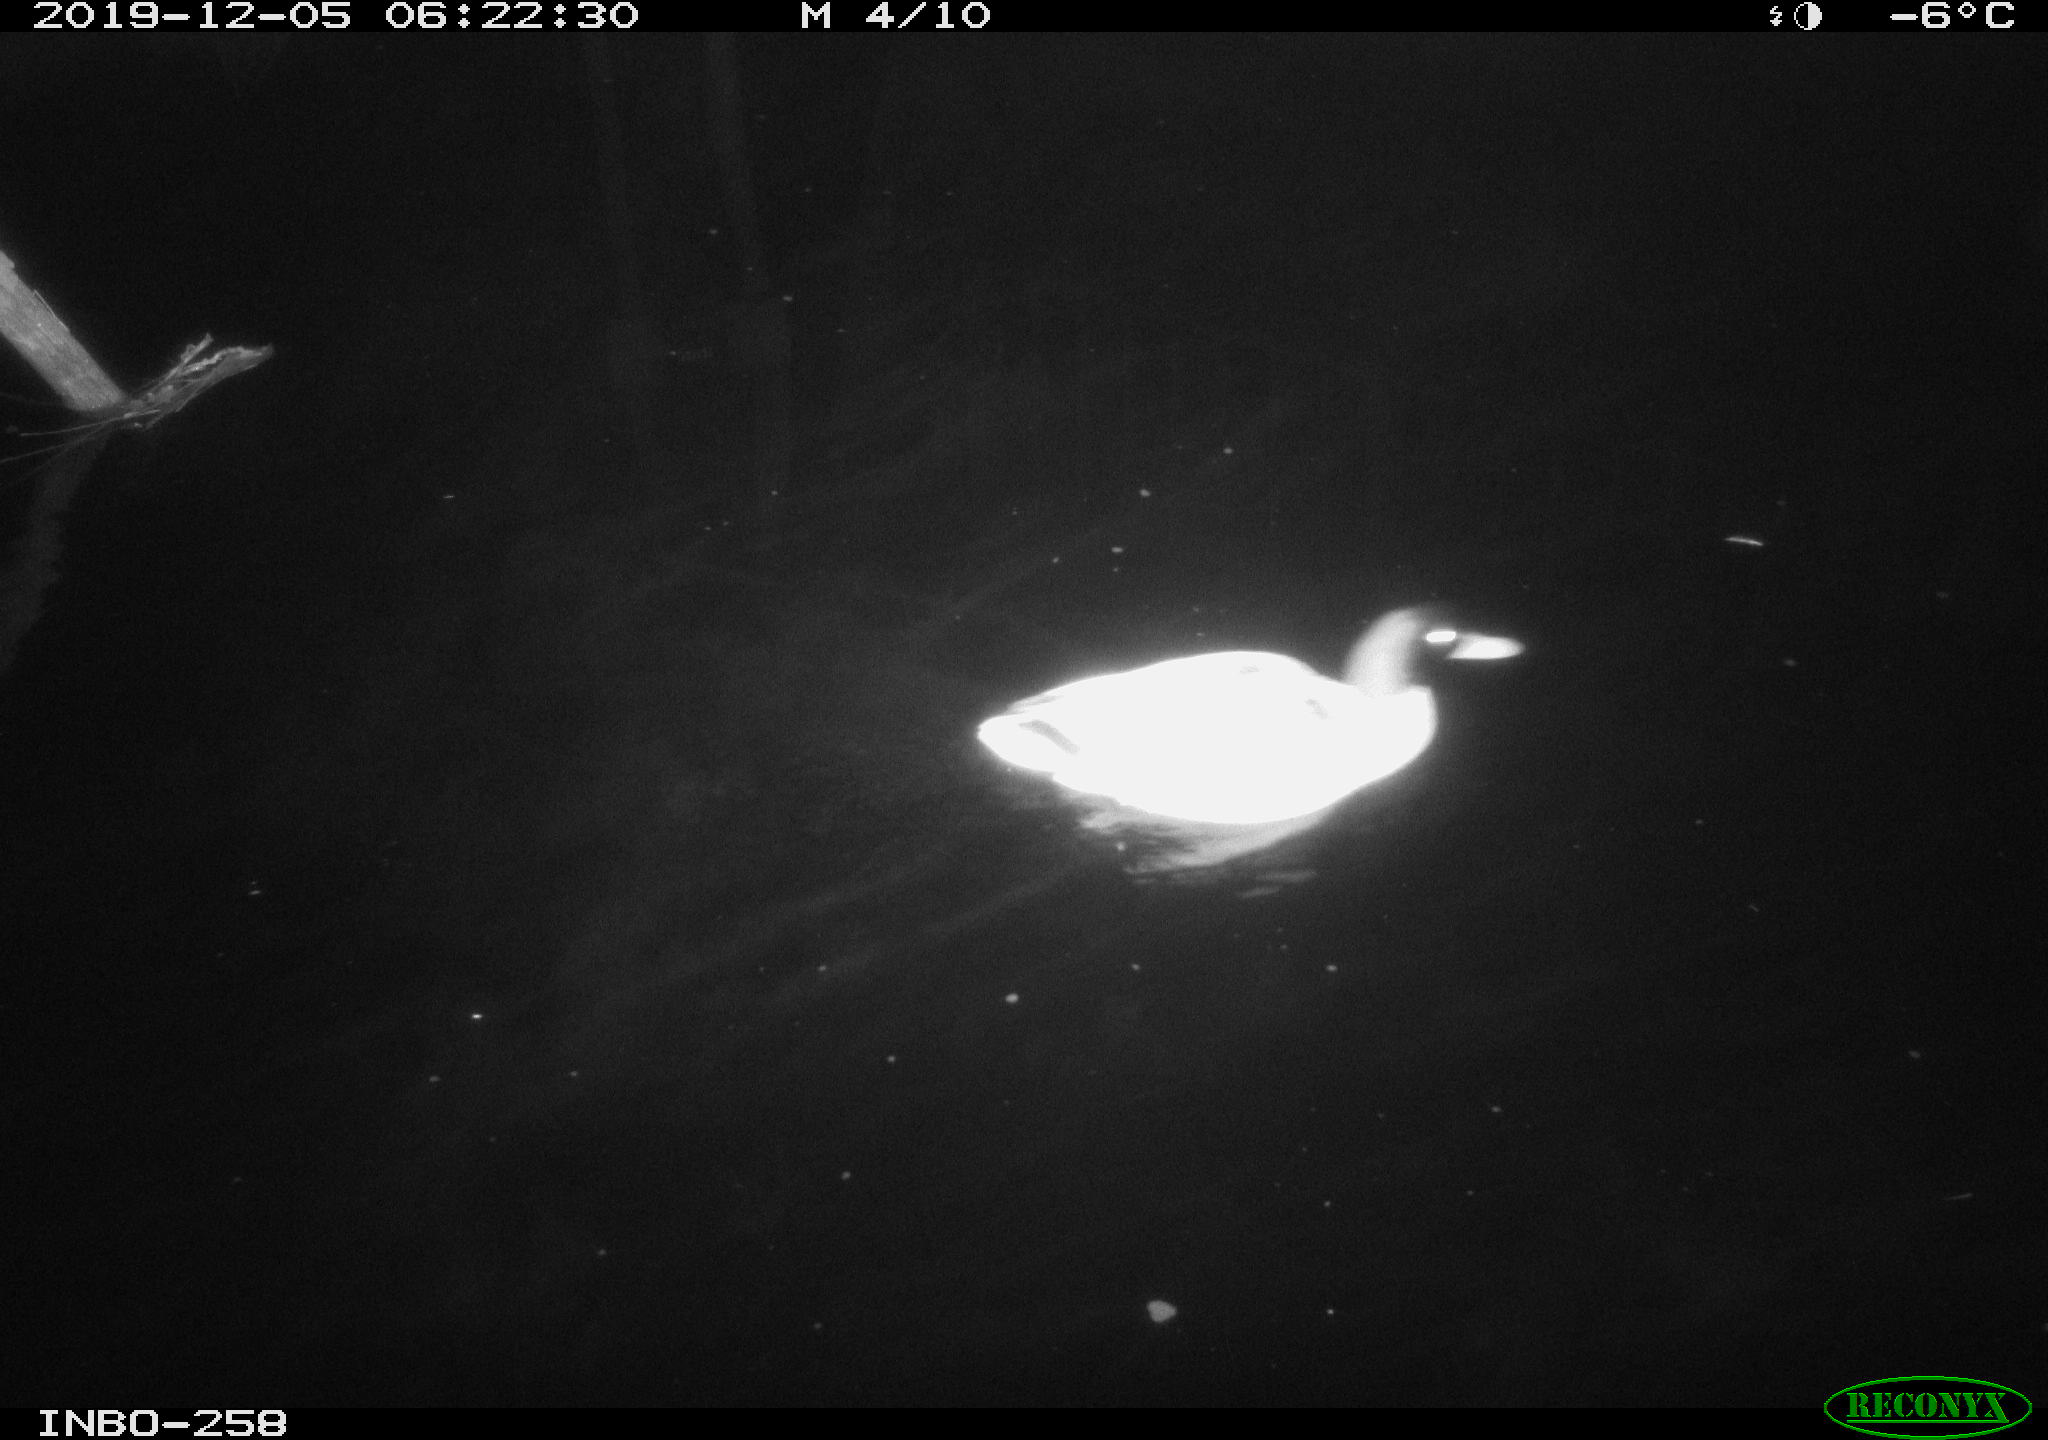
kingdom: Animalia
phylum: Chordata
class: Aves
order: Anseriformes
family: Anatidae
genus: Anas
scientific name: Anas platyrhynchos
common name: Mallard
